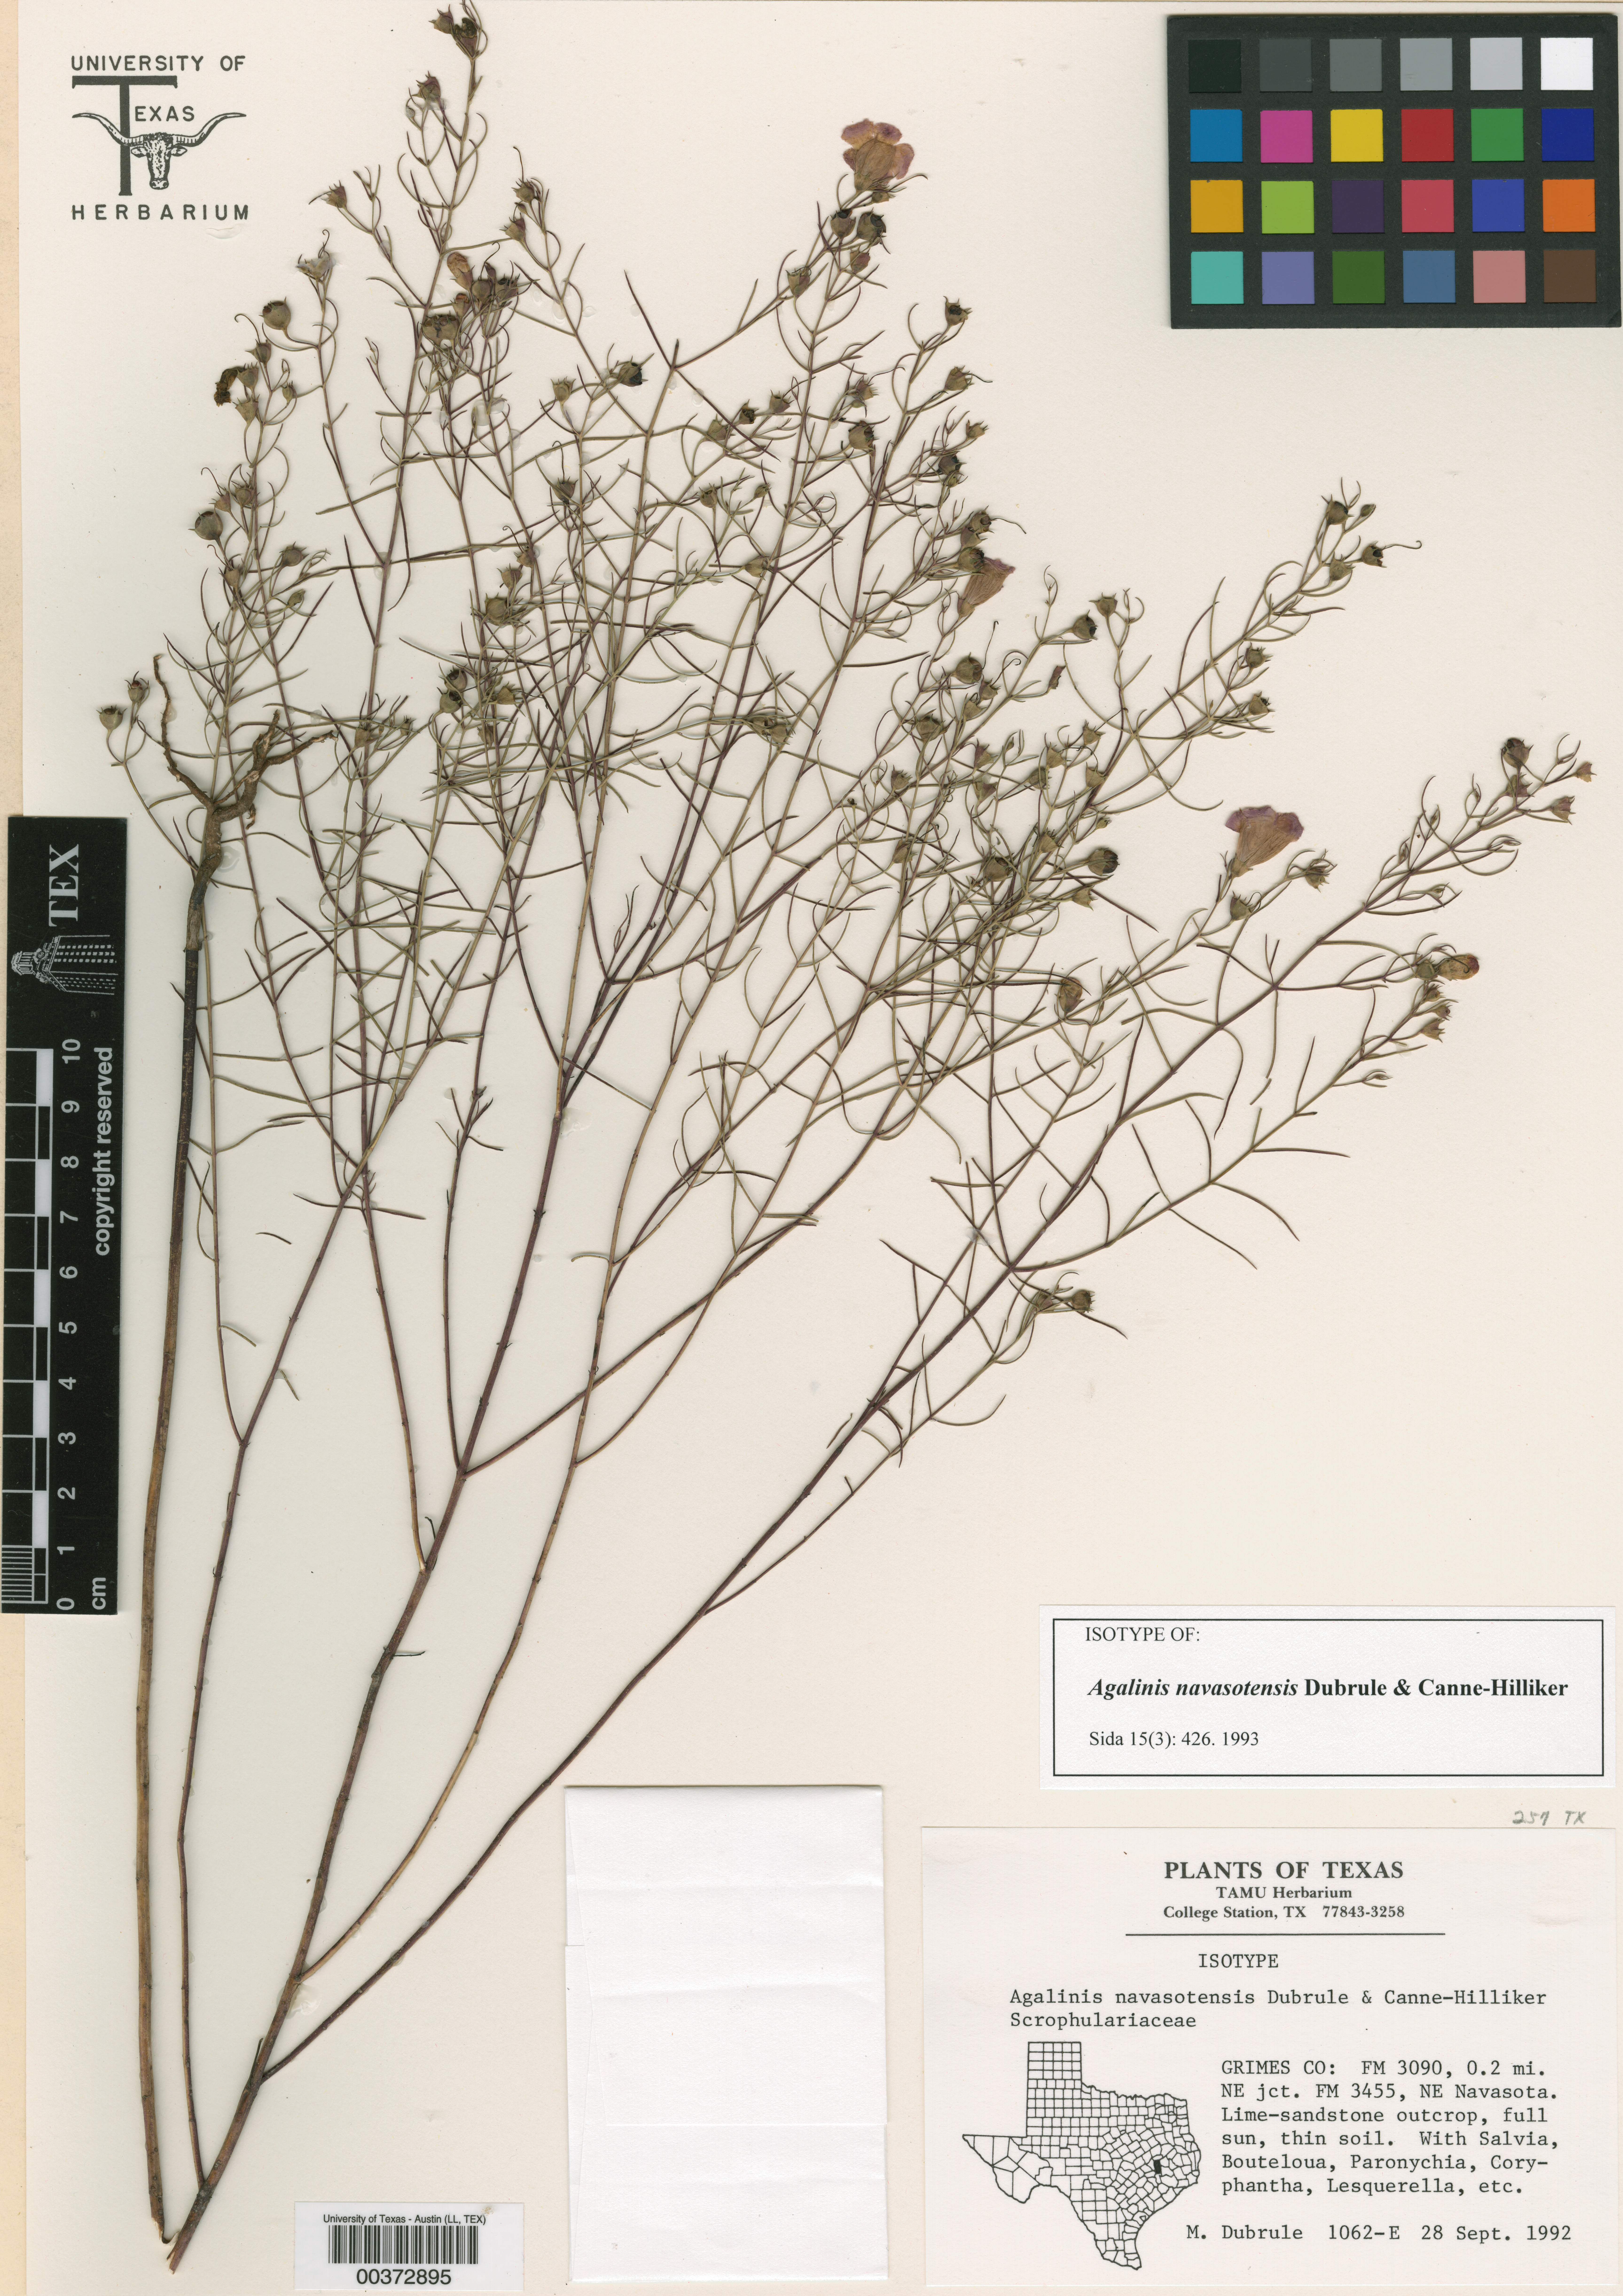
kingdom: Plantae
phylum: Tracheophyta
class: Magnoliopsida
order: Malpighiales
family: Hypericaceae
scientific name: Hypericaceae
